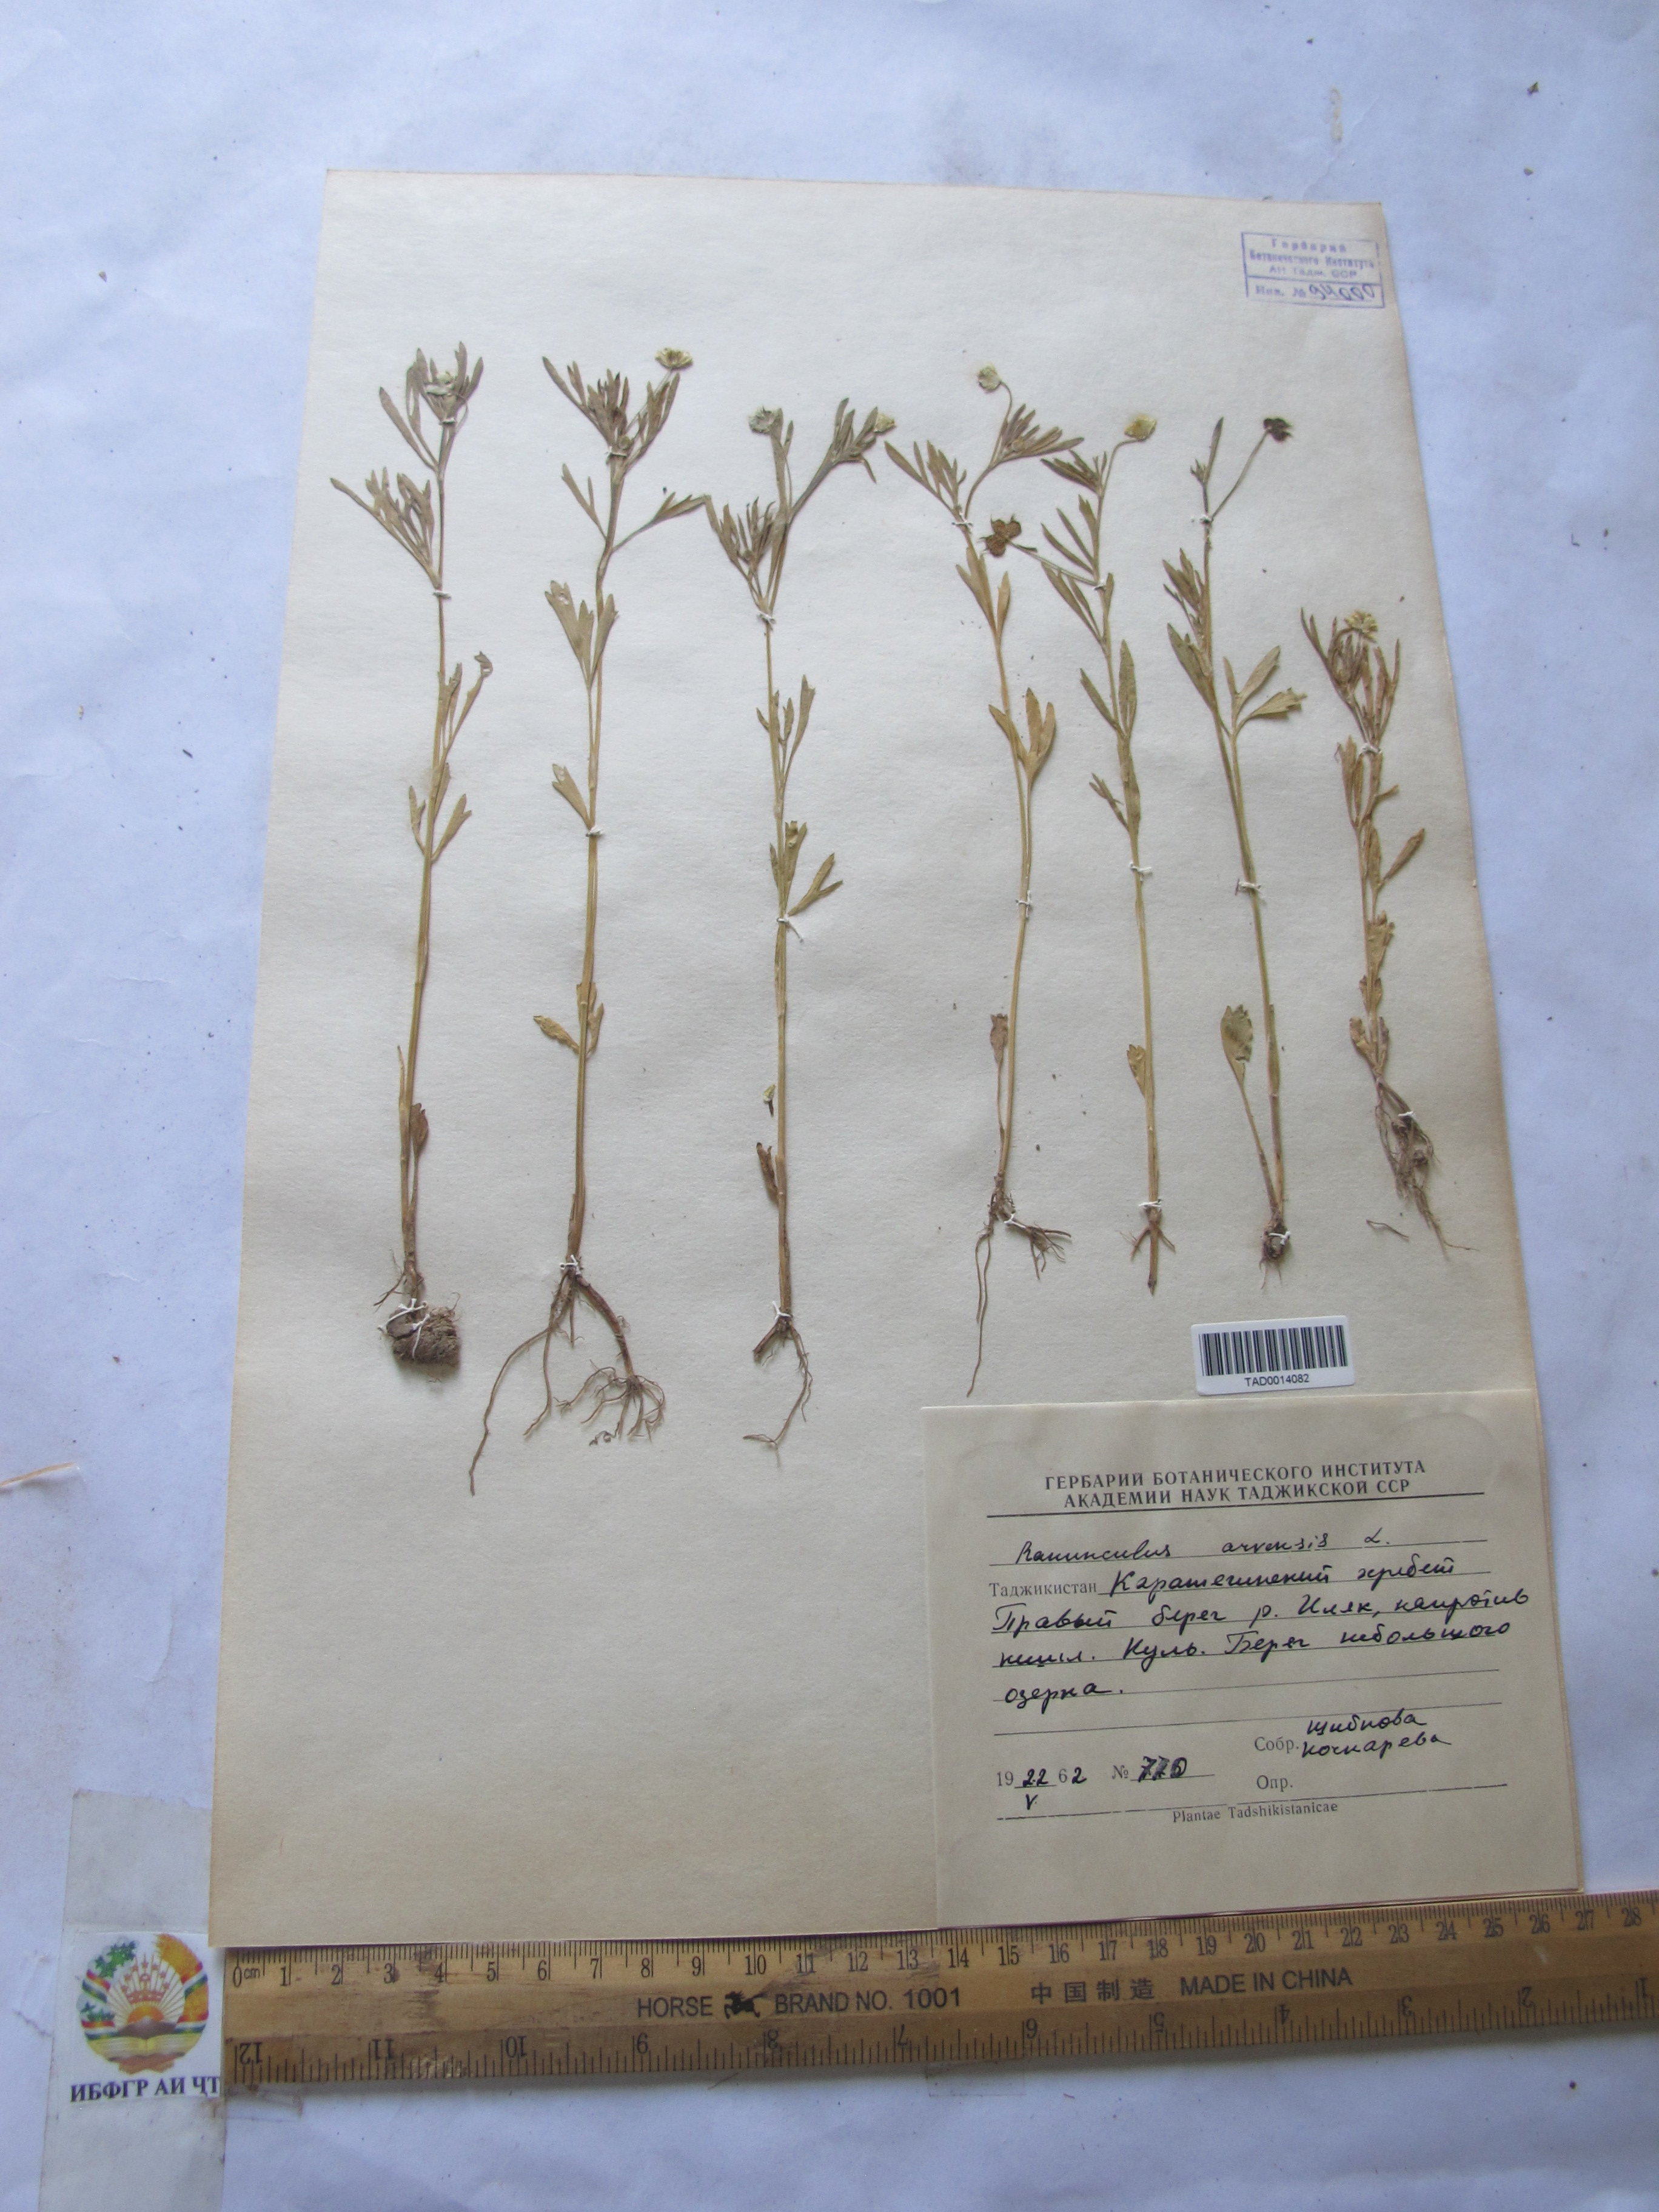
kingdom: Plantae
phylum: Tracheophyta
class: Magnoliopsida
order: Ranunculales
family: Ranunculaceae
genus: Ranunculus
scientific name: Ranunculus arvensis
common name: Corn buttercup
